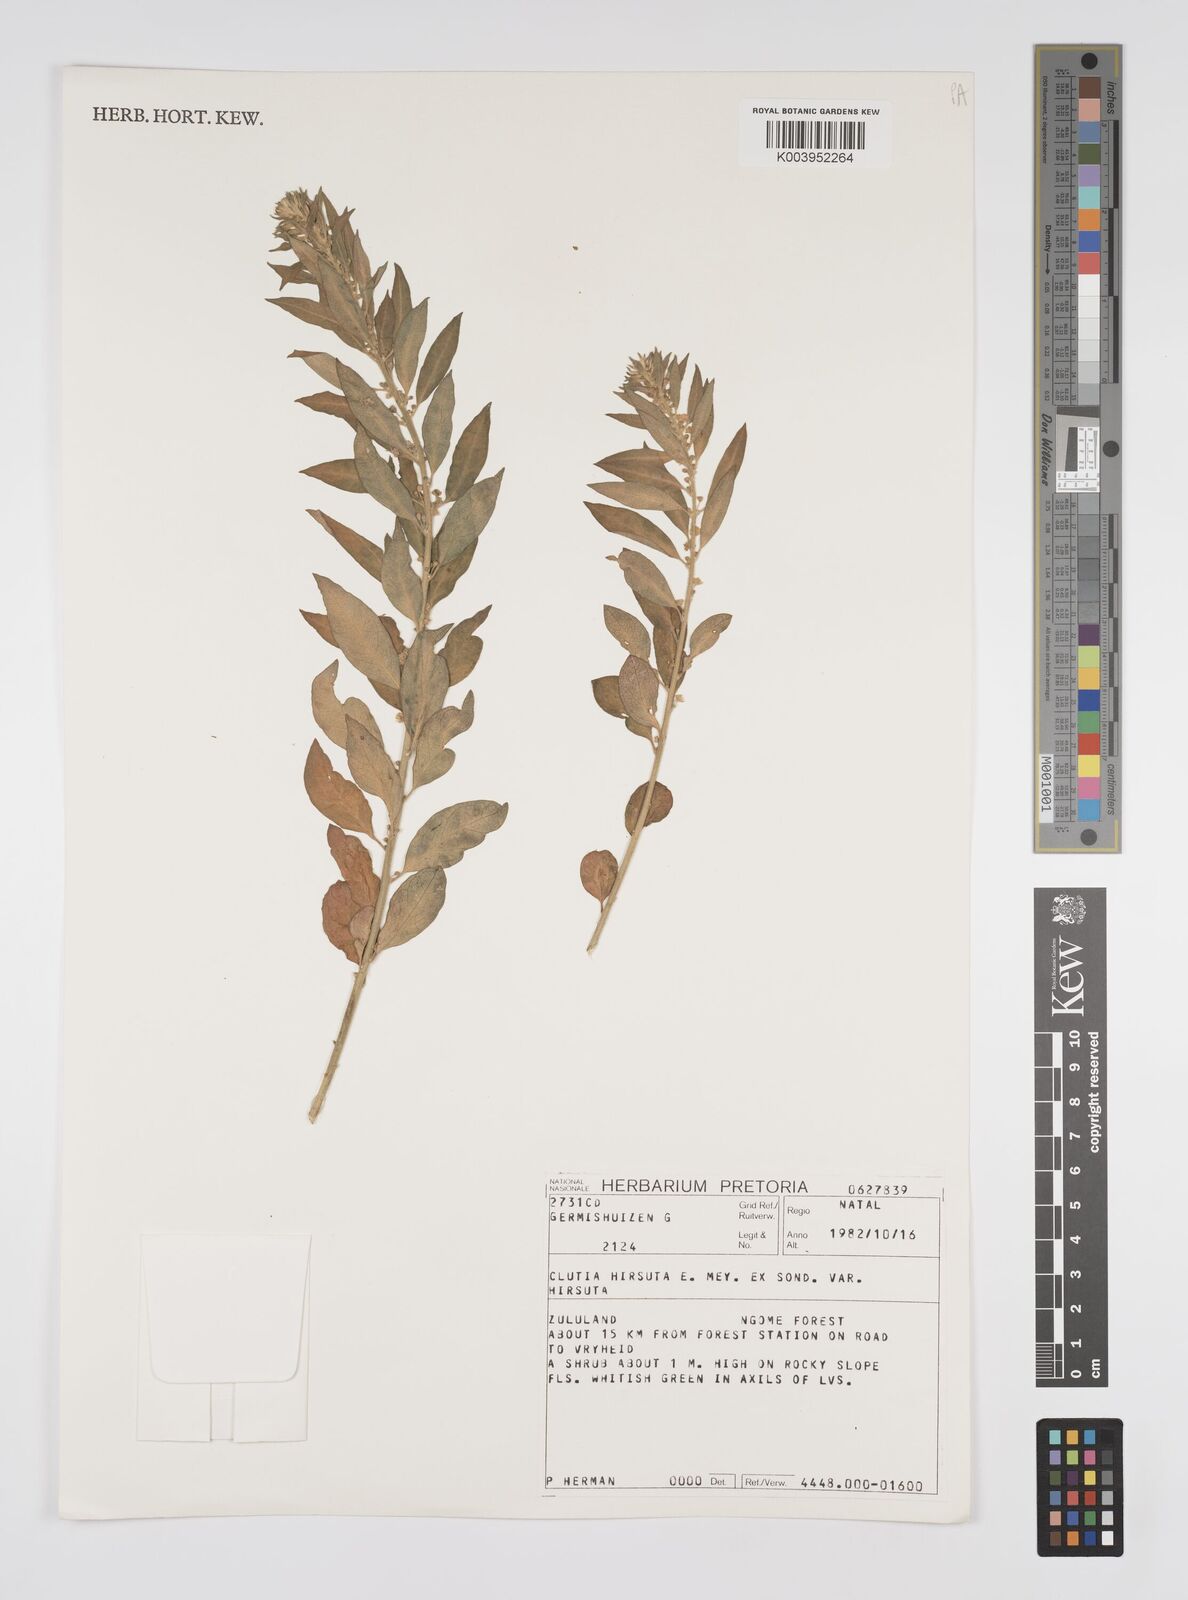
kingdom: Plantae
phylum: Tracheophyta
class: Magnoliopsida
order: Malpighiales
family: Peraceae
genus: Clutia
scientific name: Clutia affinis
